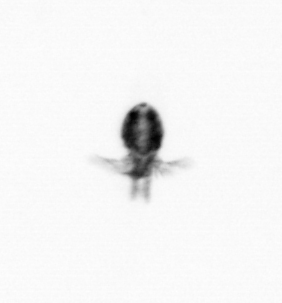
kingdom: Animalia
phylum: Arthropoda
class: Copepoda
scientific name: Copepoda
